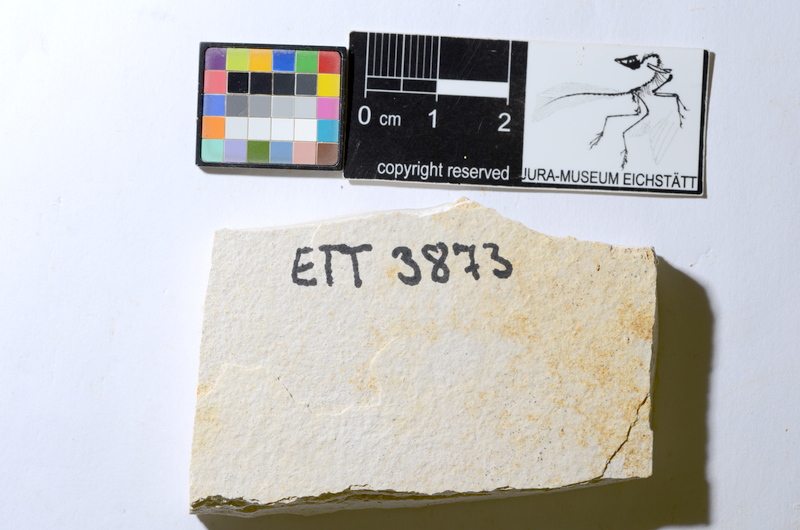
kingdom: Animalia
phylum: Chordata
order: Salmoniformes
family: Orthogonikleithridae
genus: Orthogonikleithrus
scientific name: Orthogonikleithrus hoelli
